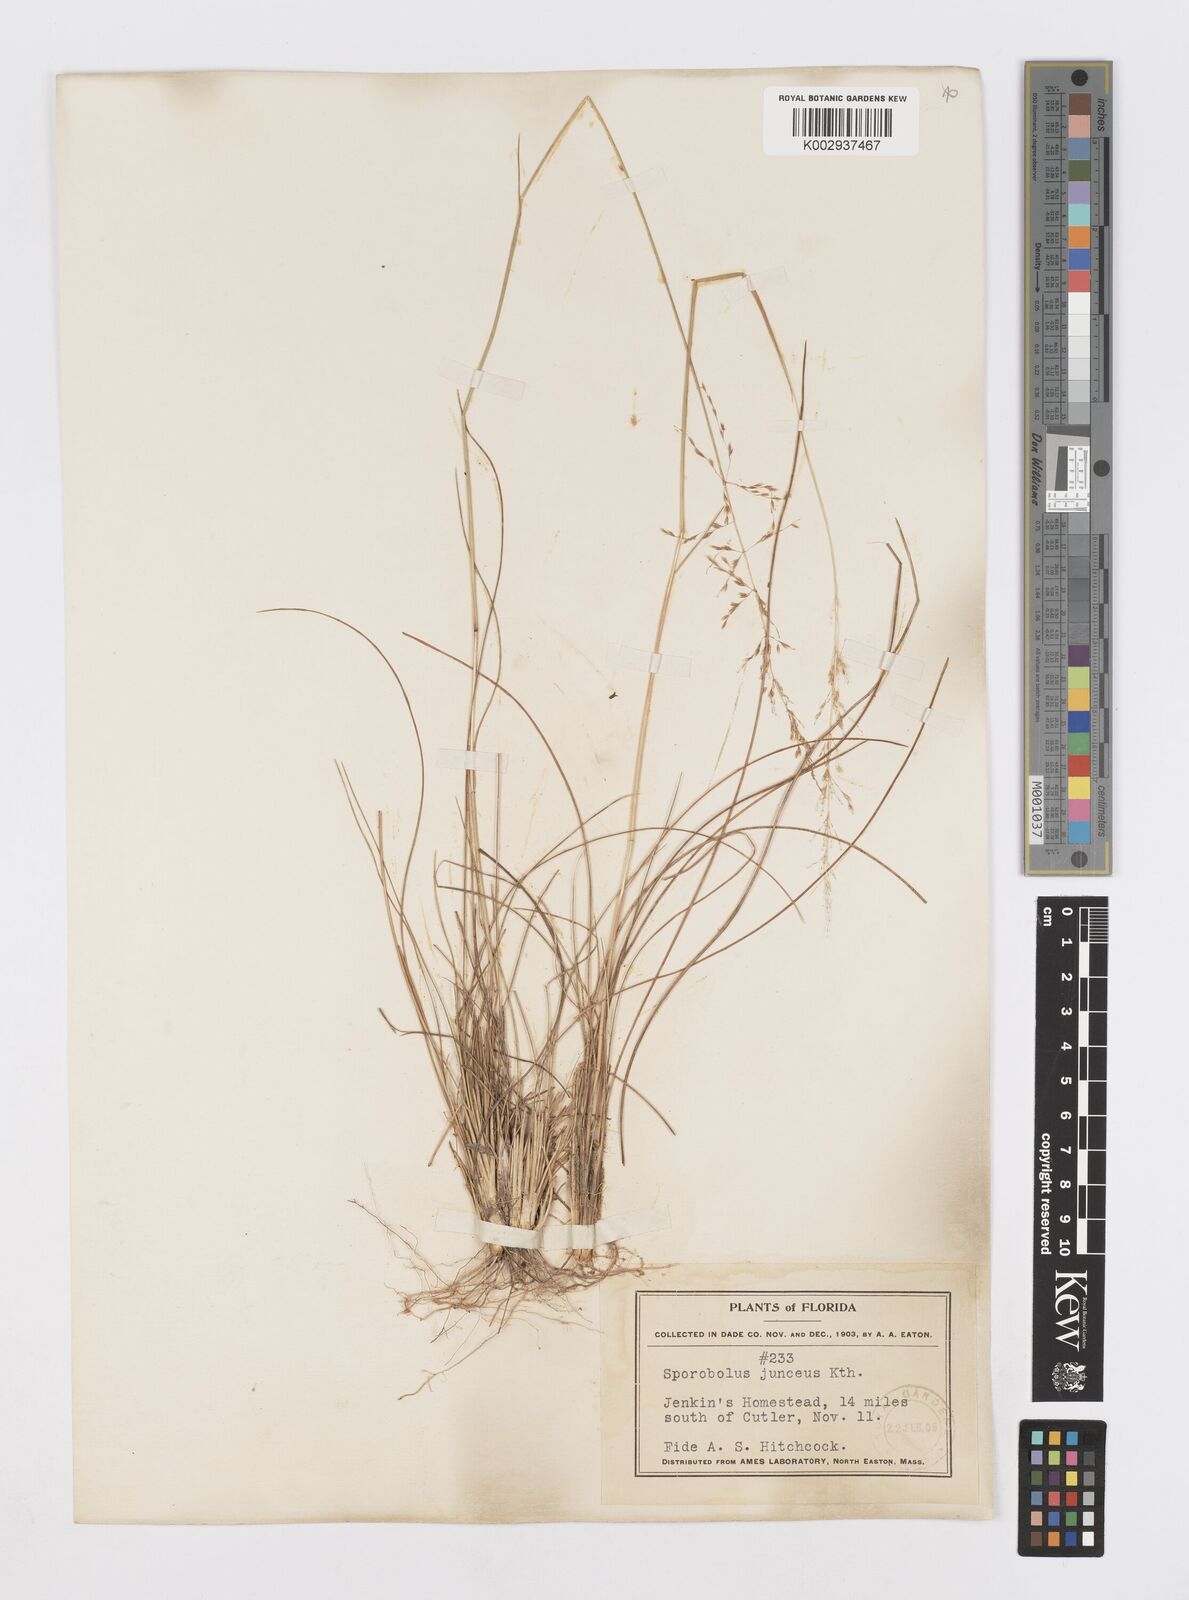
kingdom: Plantae
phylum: Tracheophyta
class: Liliopsida
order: Poales
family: Poaceae
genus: Sporobolus
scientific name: Sporobolus junceus
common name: Lizard grass
